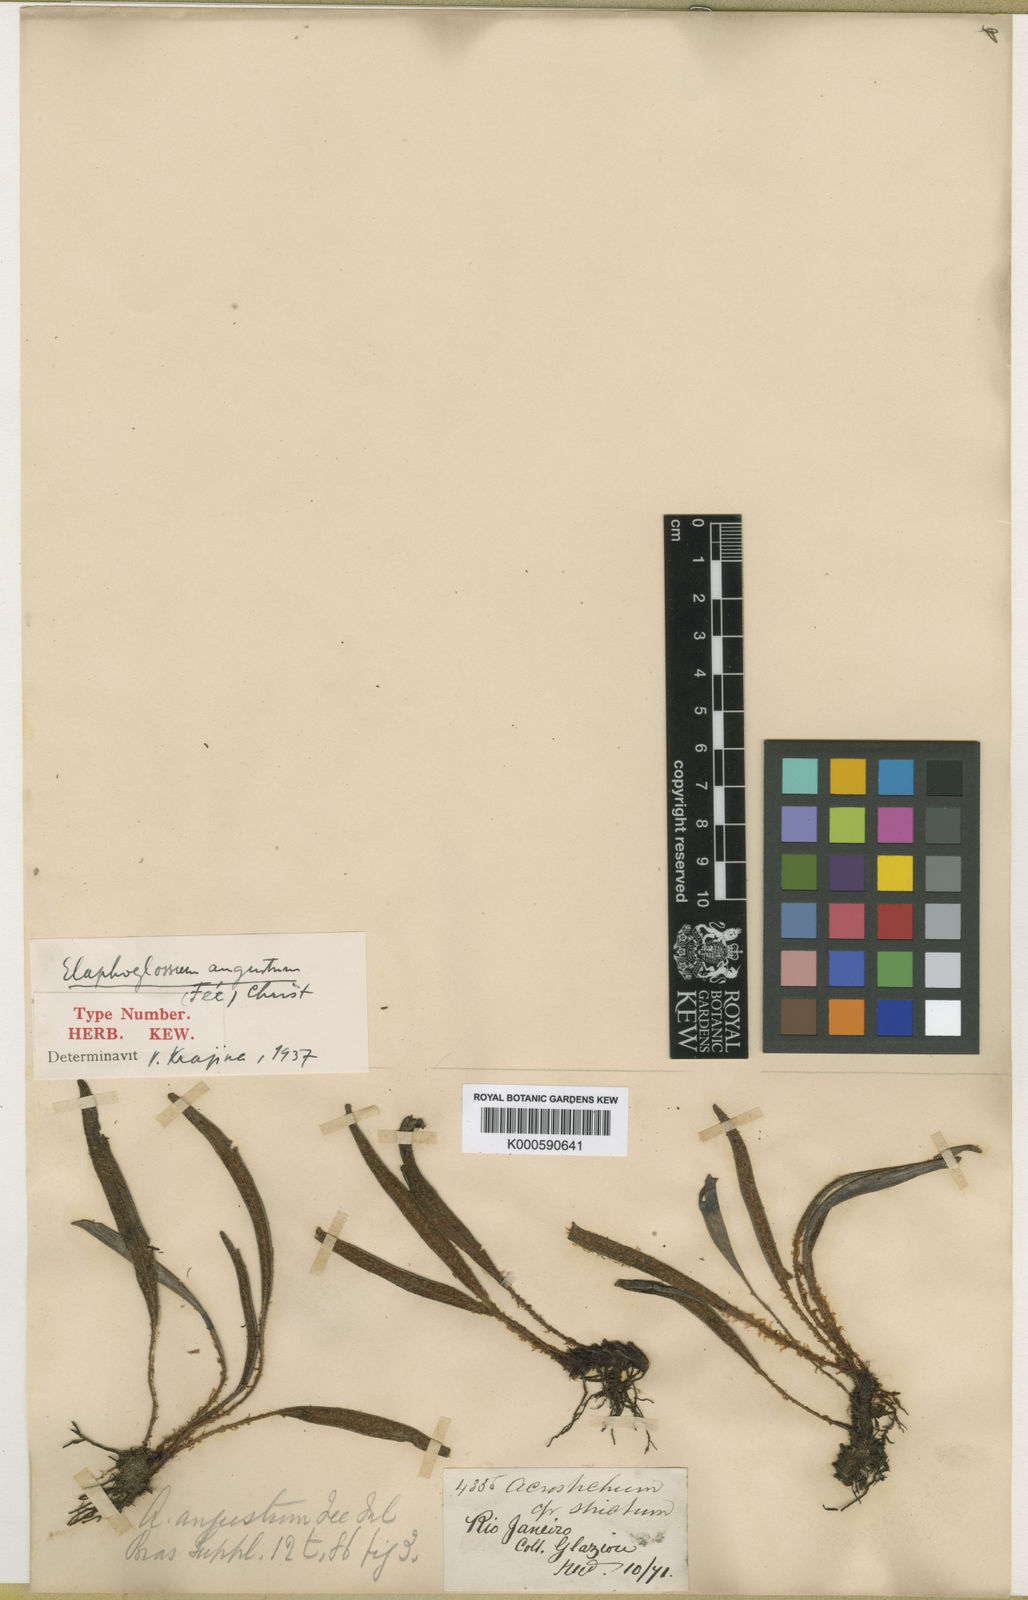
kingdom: Plantae
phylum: Tracheophyta
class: Polypodiopsida
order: Polypodiales
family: Dryopteridaceae
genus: Elaphoglossum
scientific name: Elaphoglossum
